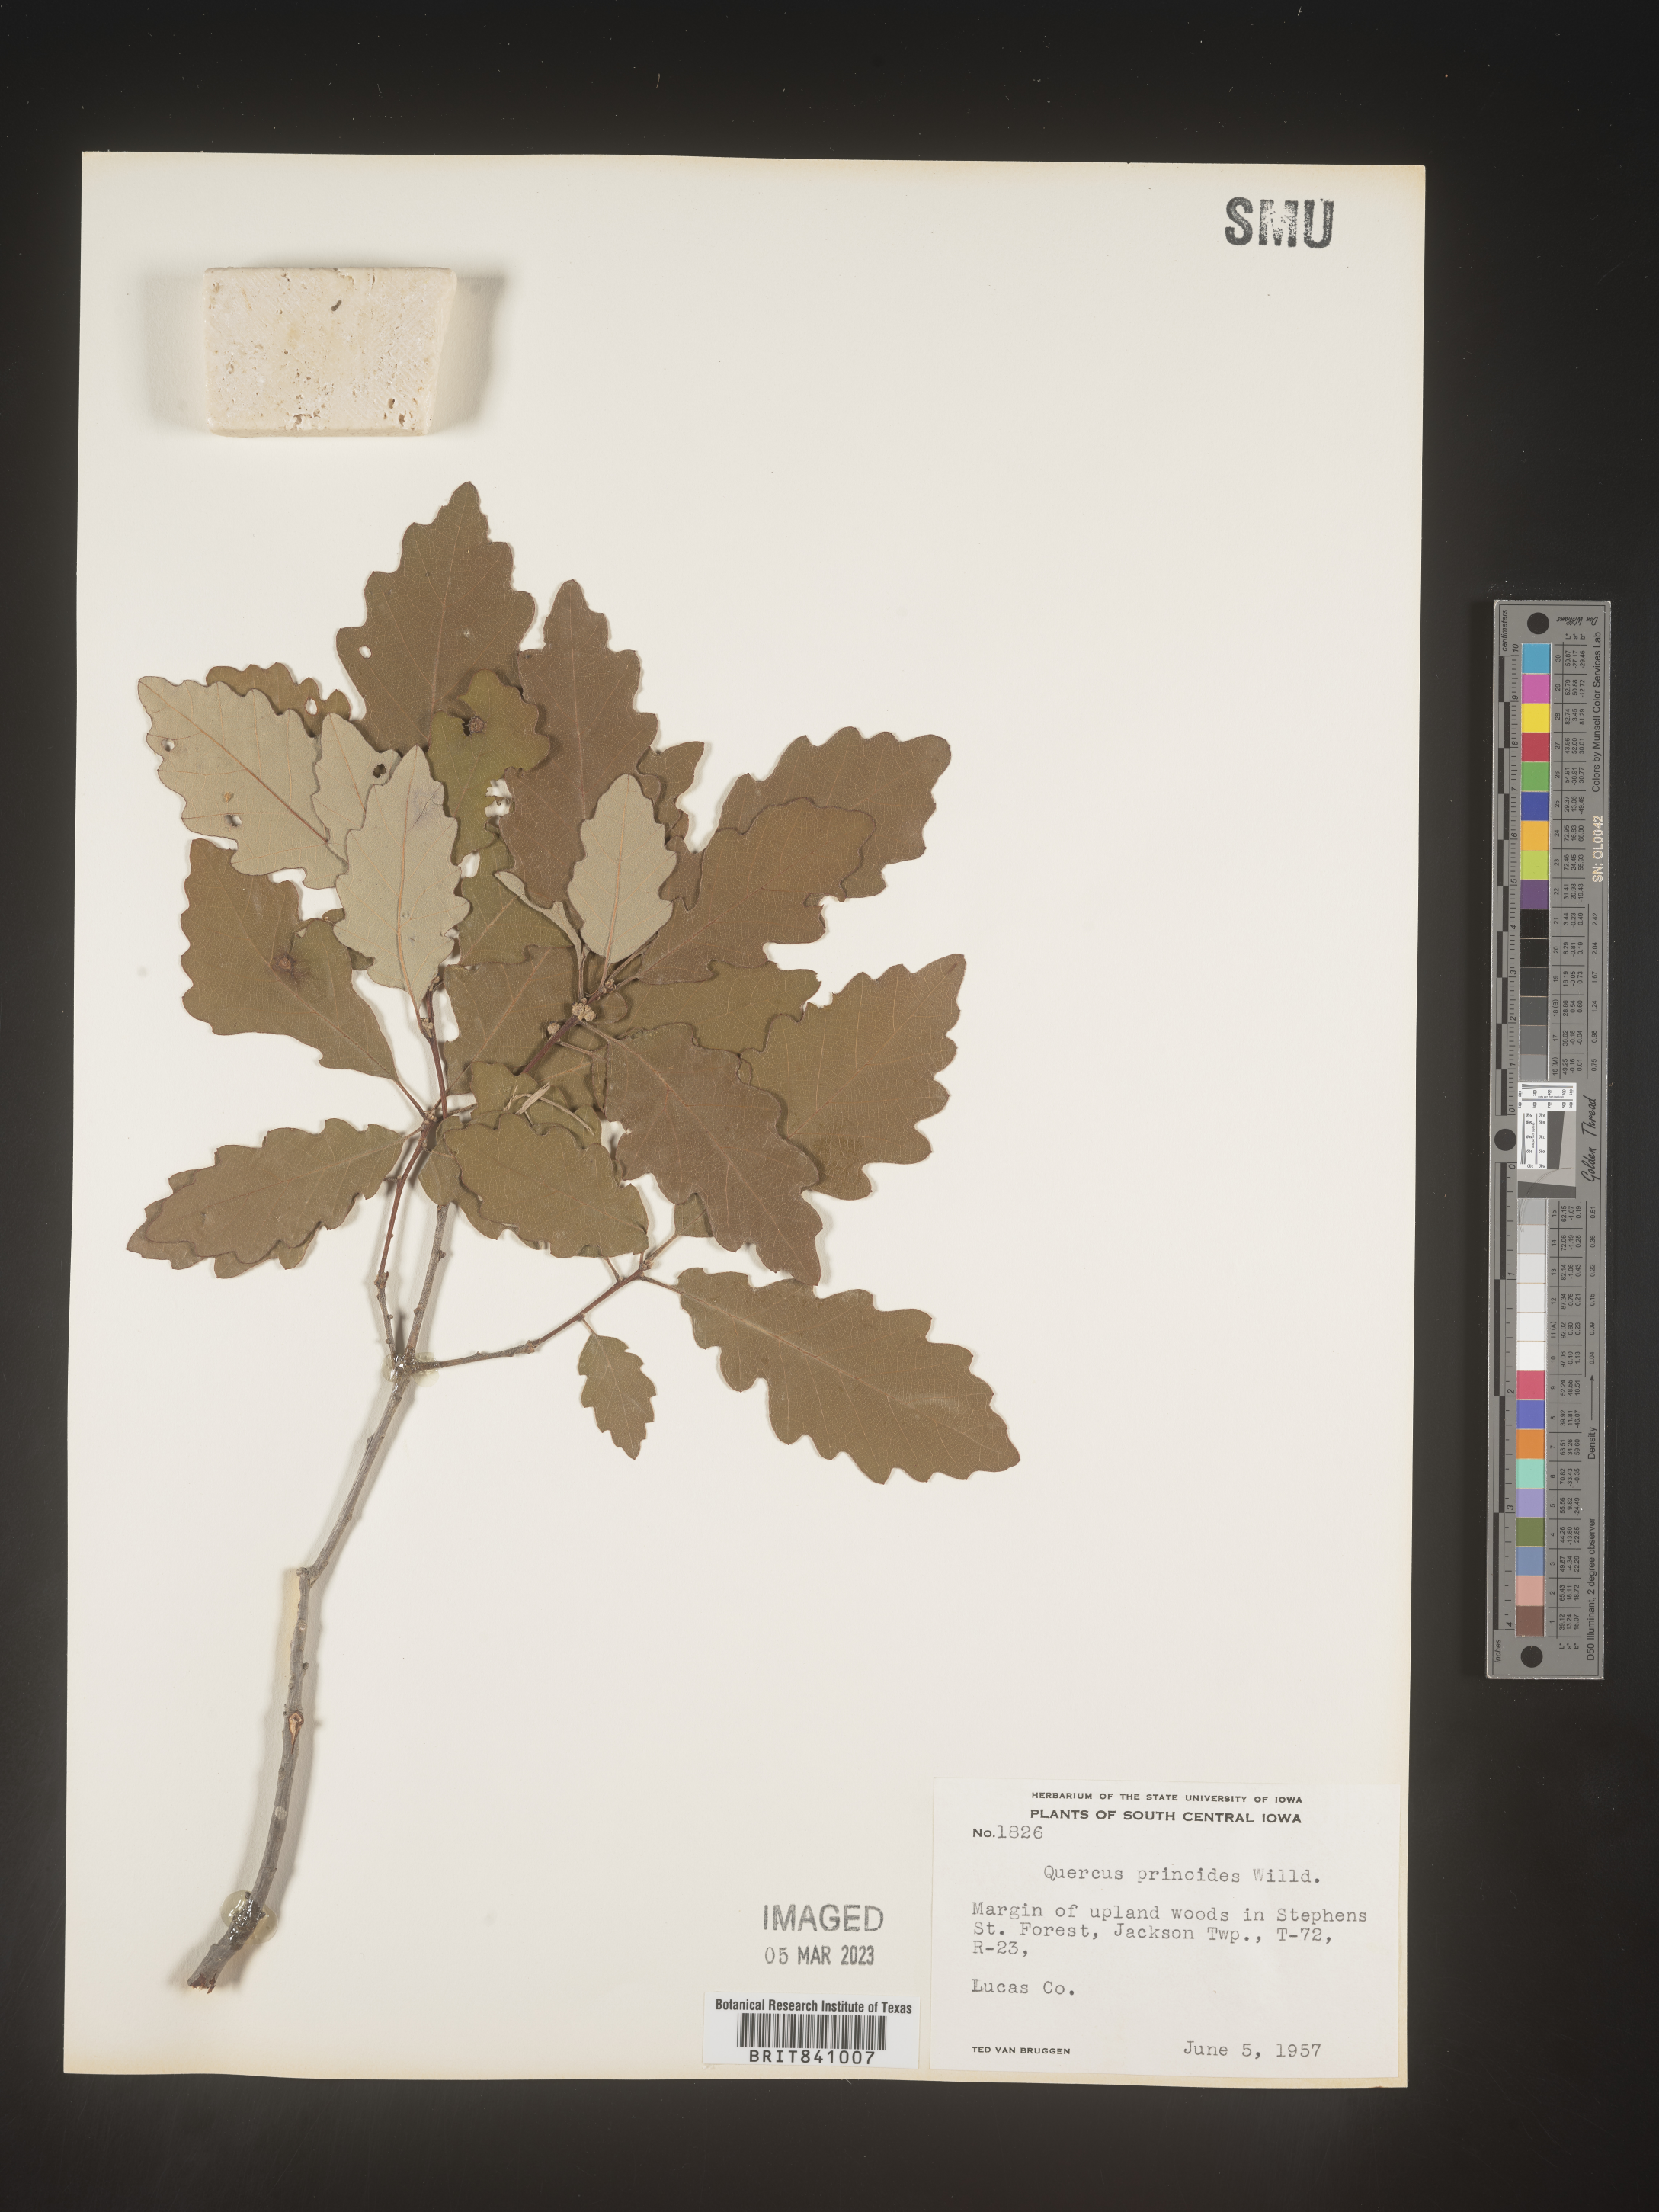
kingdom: Plantae
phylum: Tracheophyta
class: Magnoliopsida
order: Fagales
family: Fagaceae
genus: Quercus
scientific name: Quercus prinoides
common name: Dwarf chinkapin oak
